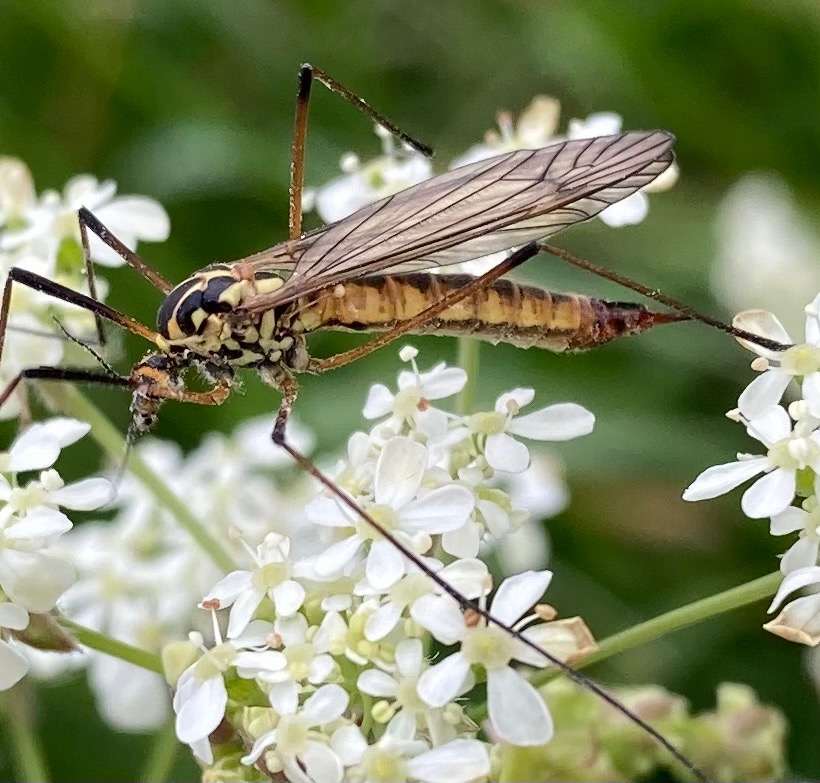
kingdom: Animalia
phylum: Arthropoda
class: Insecta
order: Diptera
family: Tipulidae
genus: Nephrotoma
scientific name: Nephrotoma appendiculata
